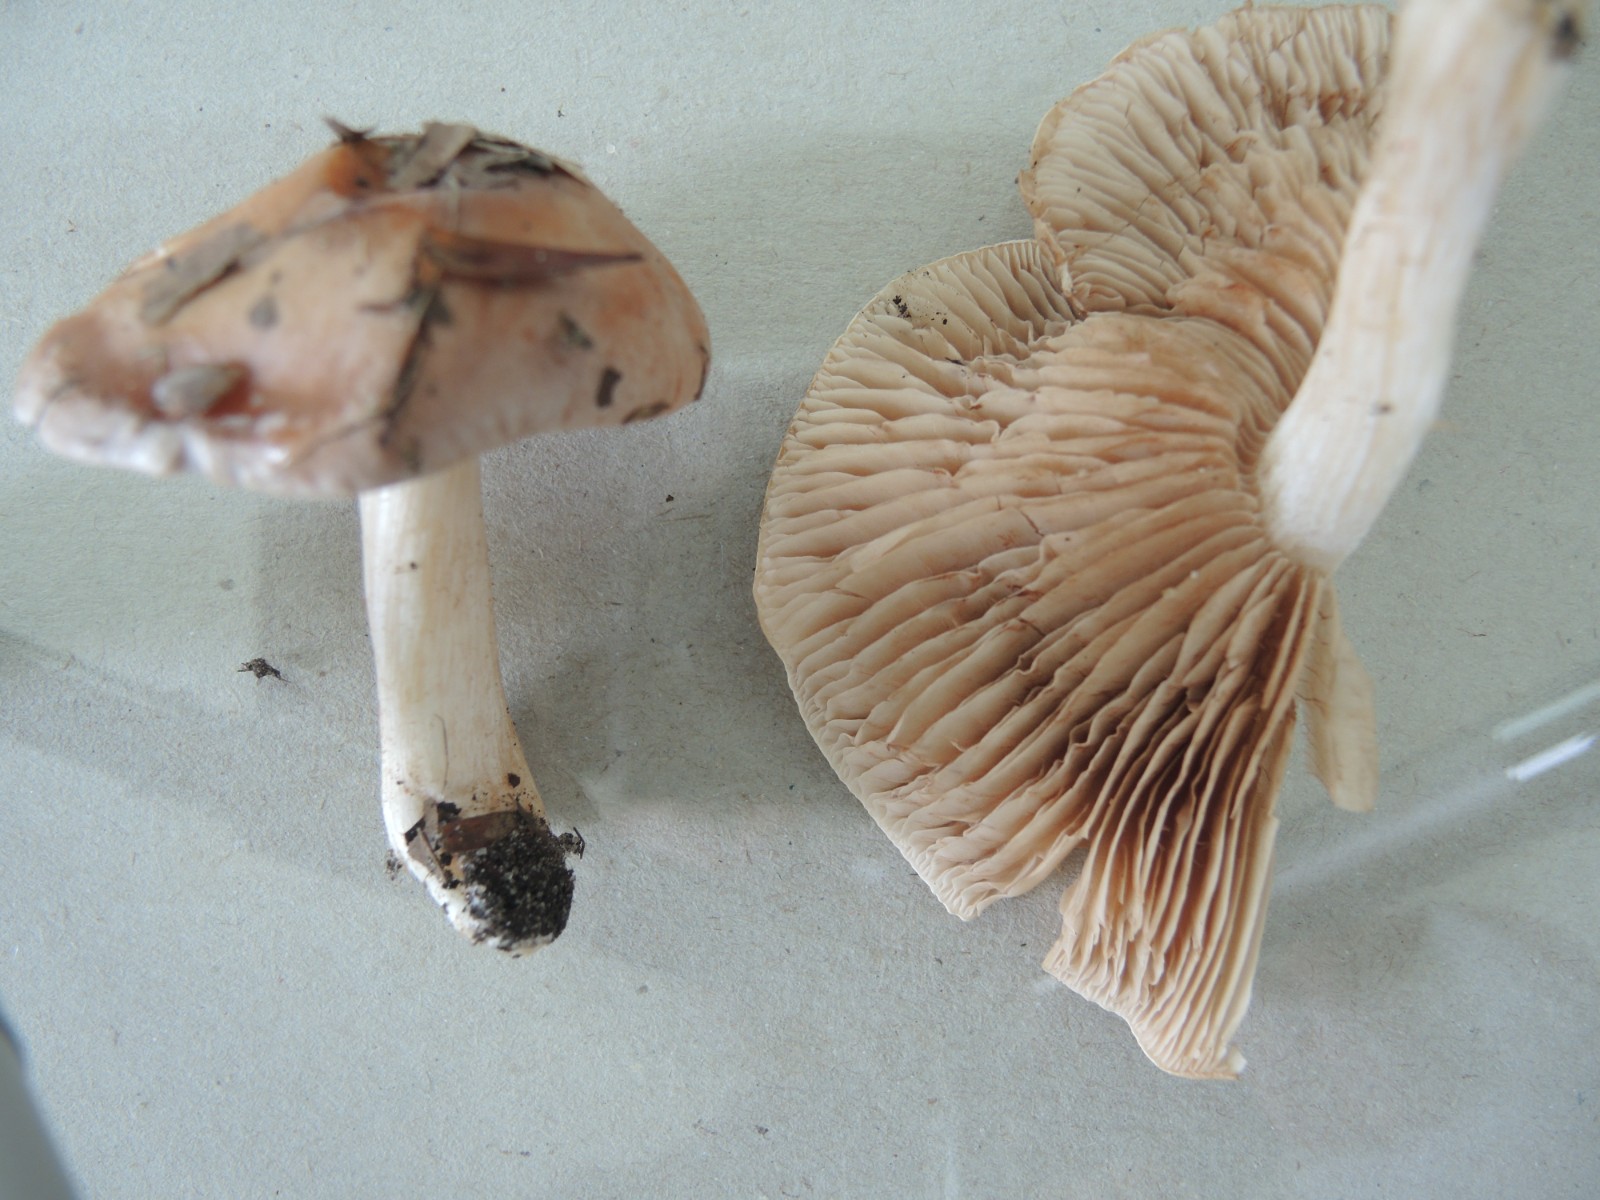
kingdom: Fungi
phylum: Basidiomycota
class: Agaricomycetes
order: Agaricales
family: Hymenogastraceae
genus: Hebeloma
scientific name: Hebeloma theobrominum
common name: rødbrun tåreblad
